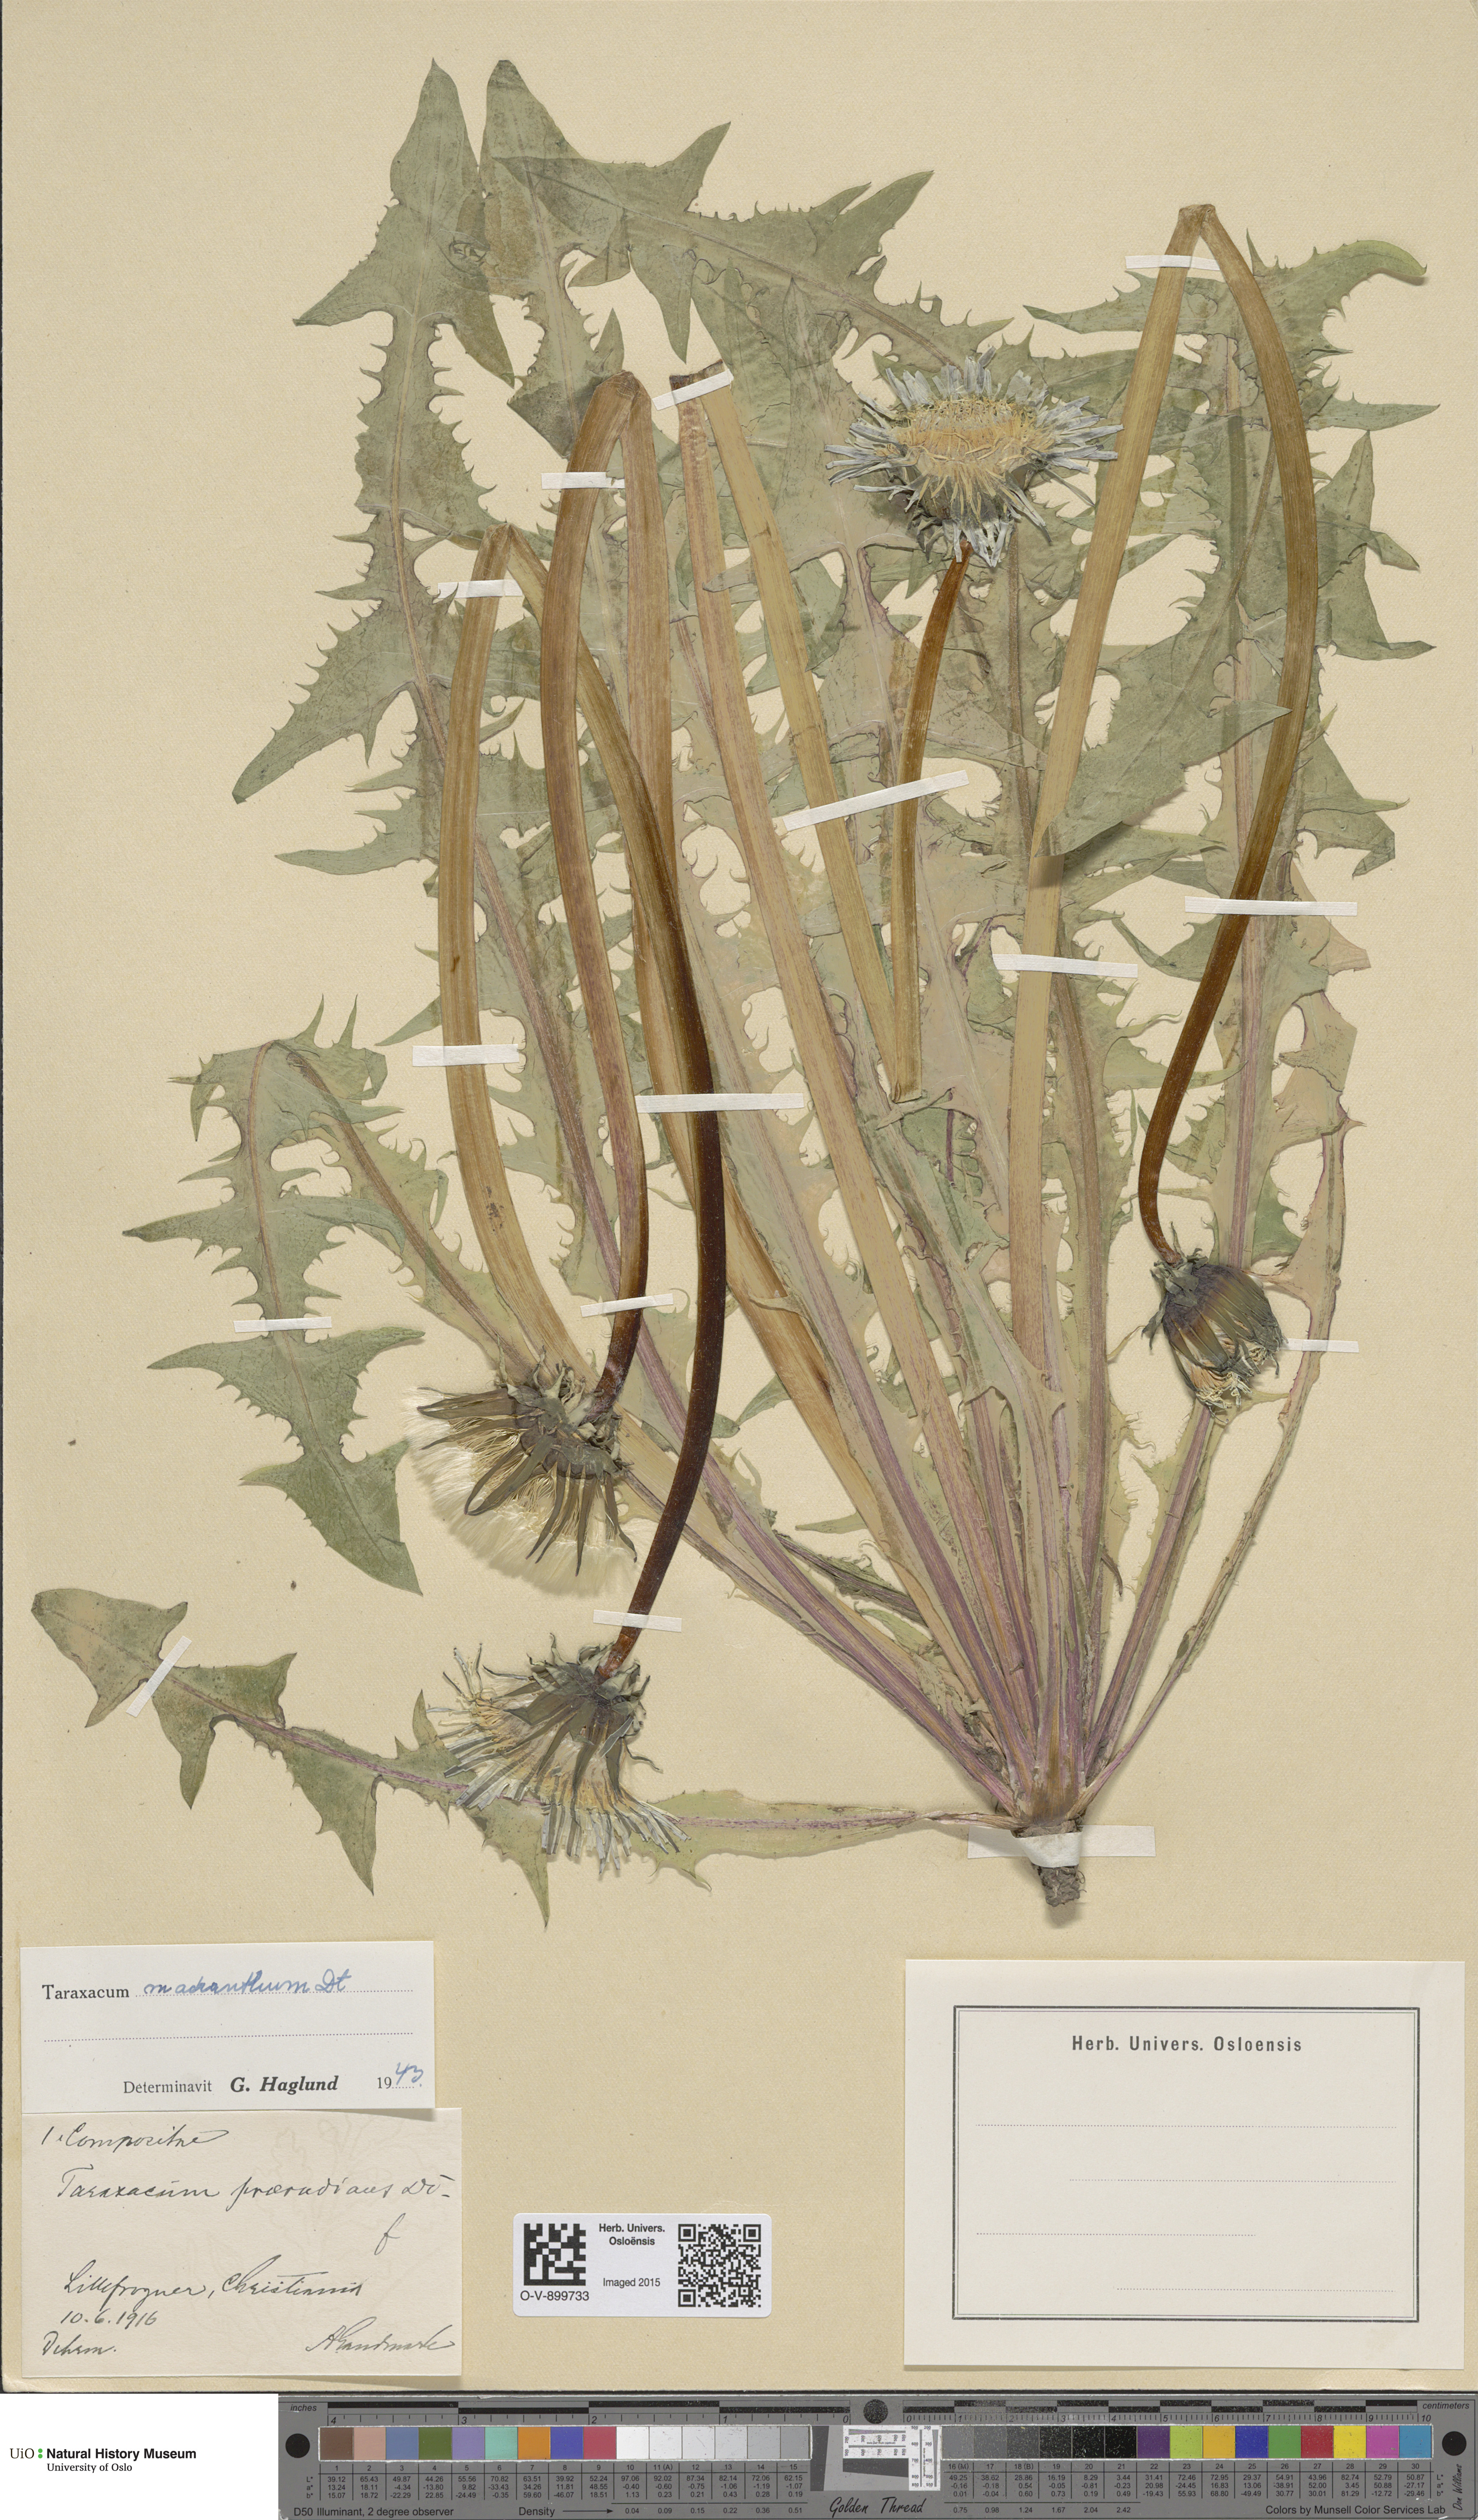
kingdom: Plantae
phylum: Tracheophyta
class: Magnoliopsida
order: Asterales
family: Asteraceae
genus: Taraxacum
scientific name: Taraxacum praeradians
